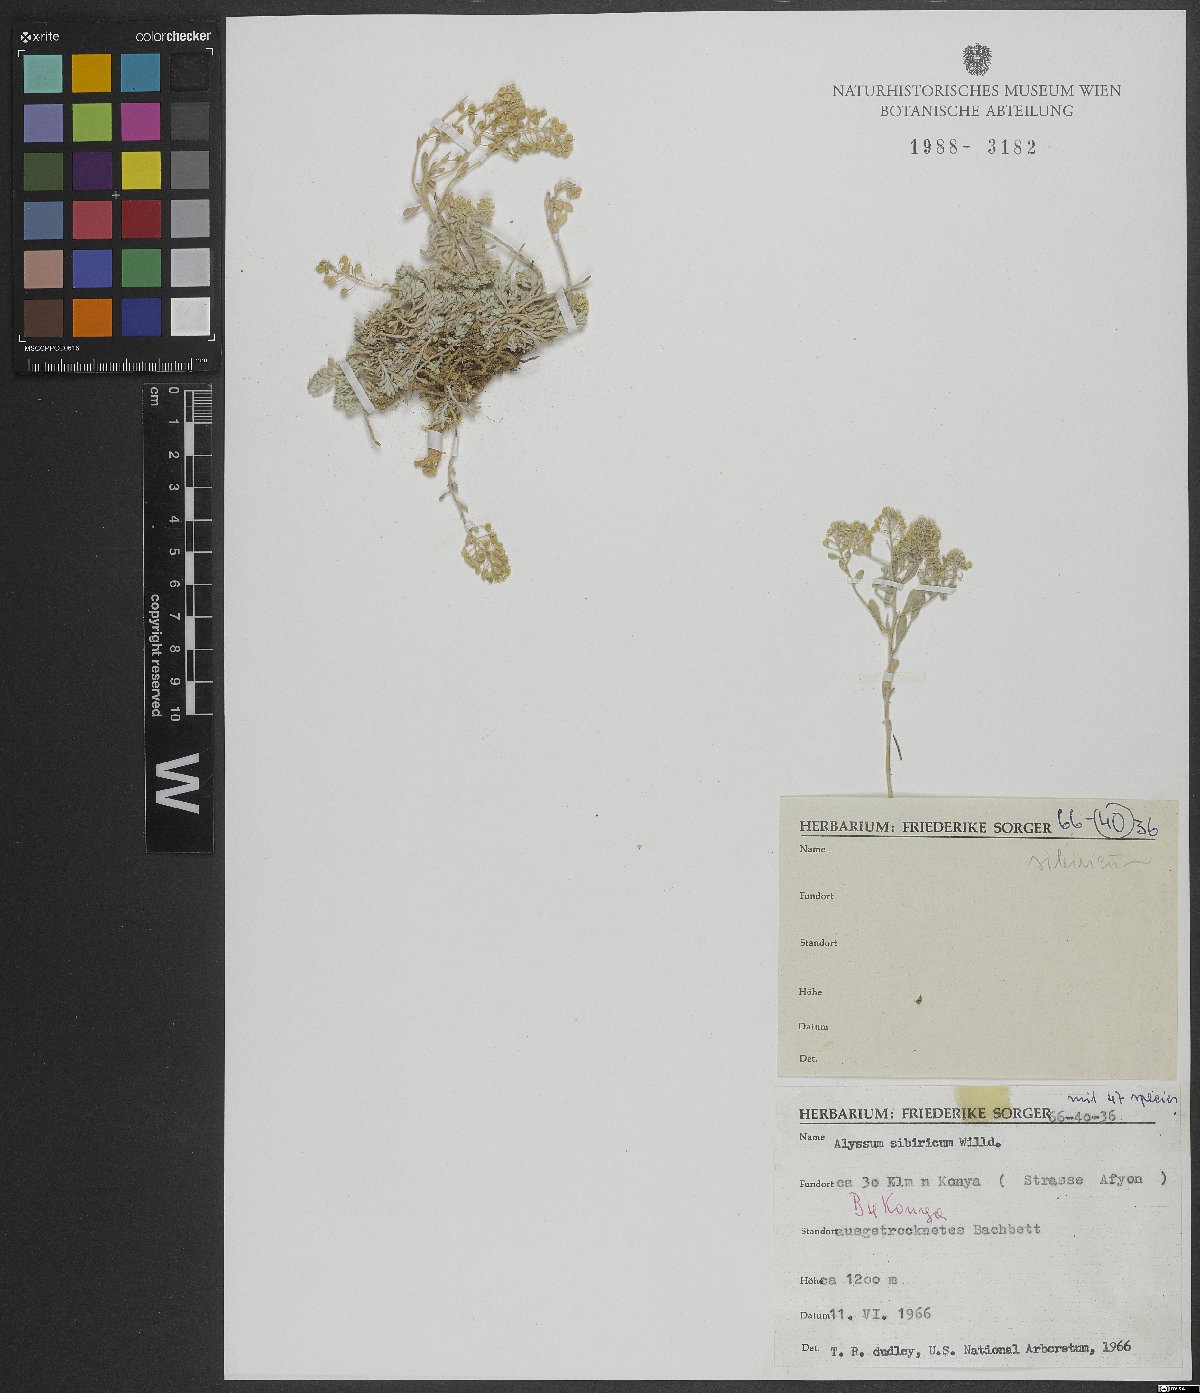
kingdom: Plantae
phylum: Tracheophyta
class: Magnoliopsida
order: Brassicales
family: Brassicaceae
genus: Odontarrhena
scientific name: Odontarrhena sibirica
